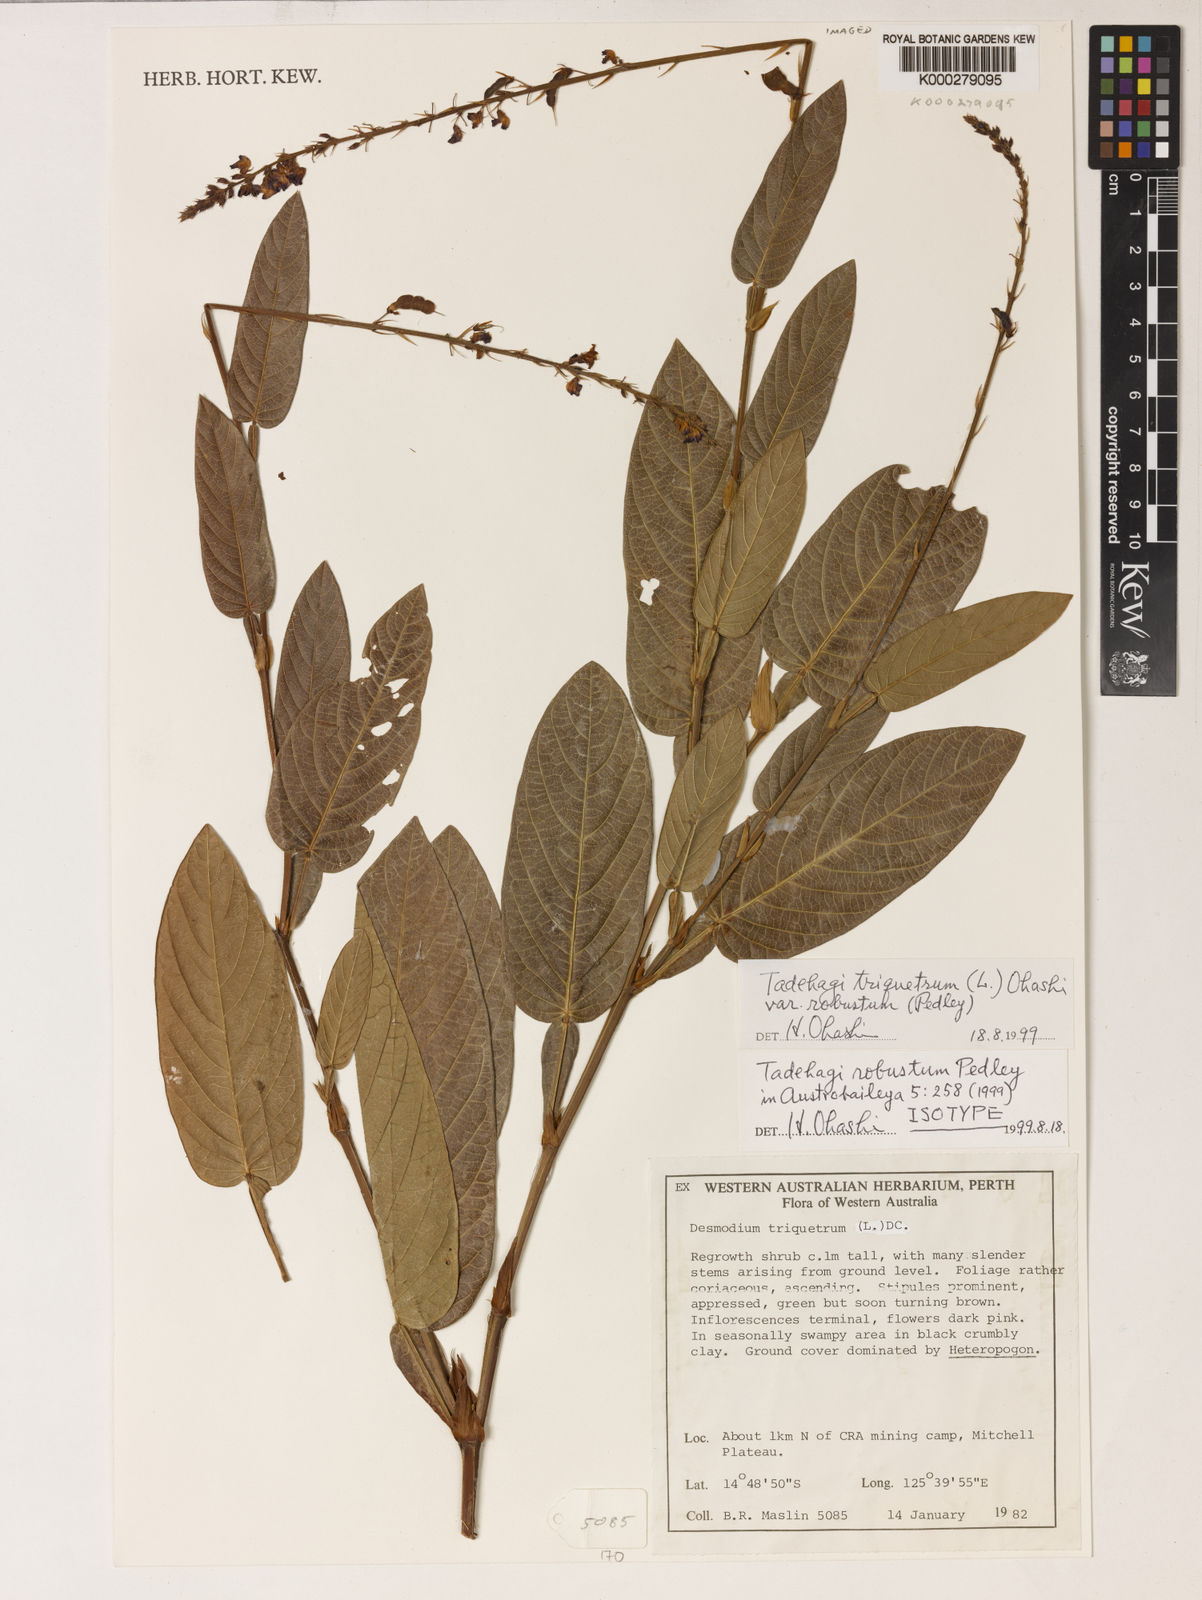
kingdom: Plantae
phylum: Tracheophyta
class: Magnoliopsida
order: Fabales
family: Fabaceae
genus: Tadehagi
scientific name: Tadehagi triquetrum
